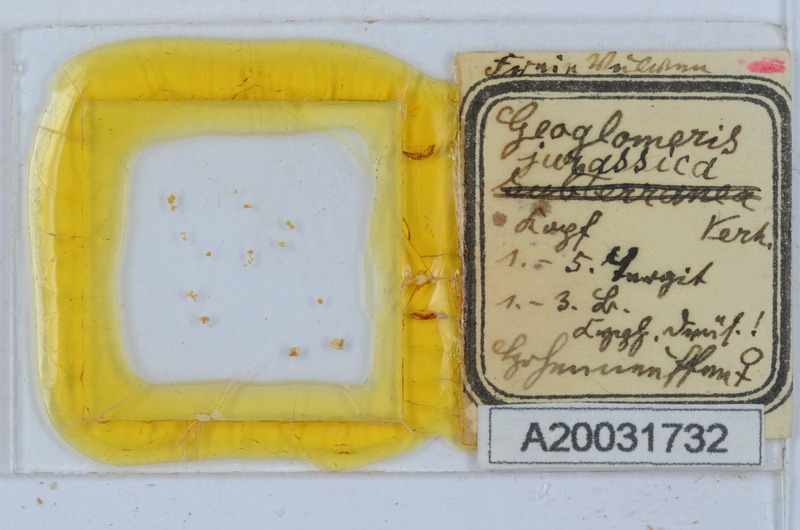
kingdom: Animalia
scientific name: Animalia
